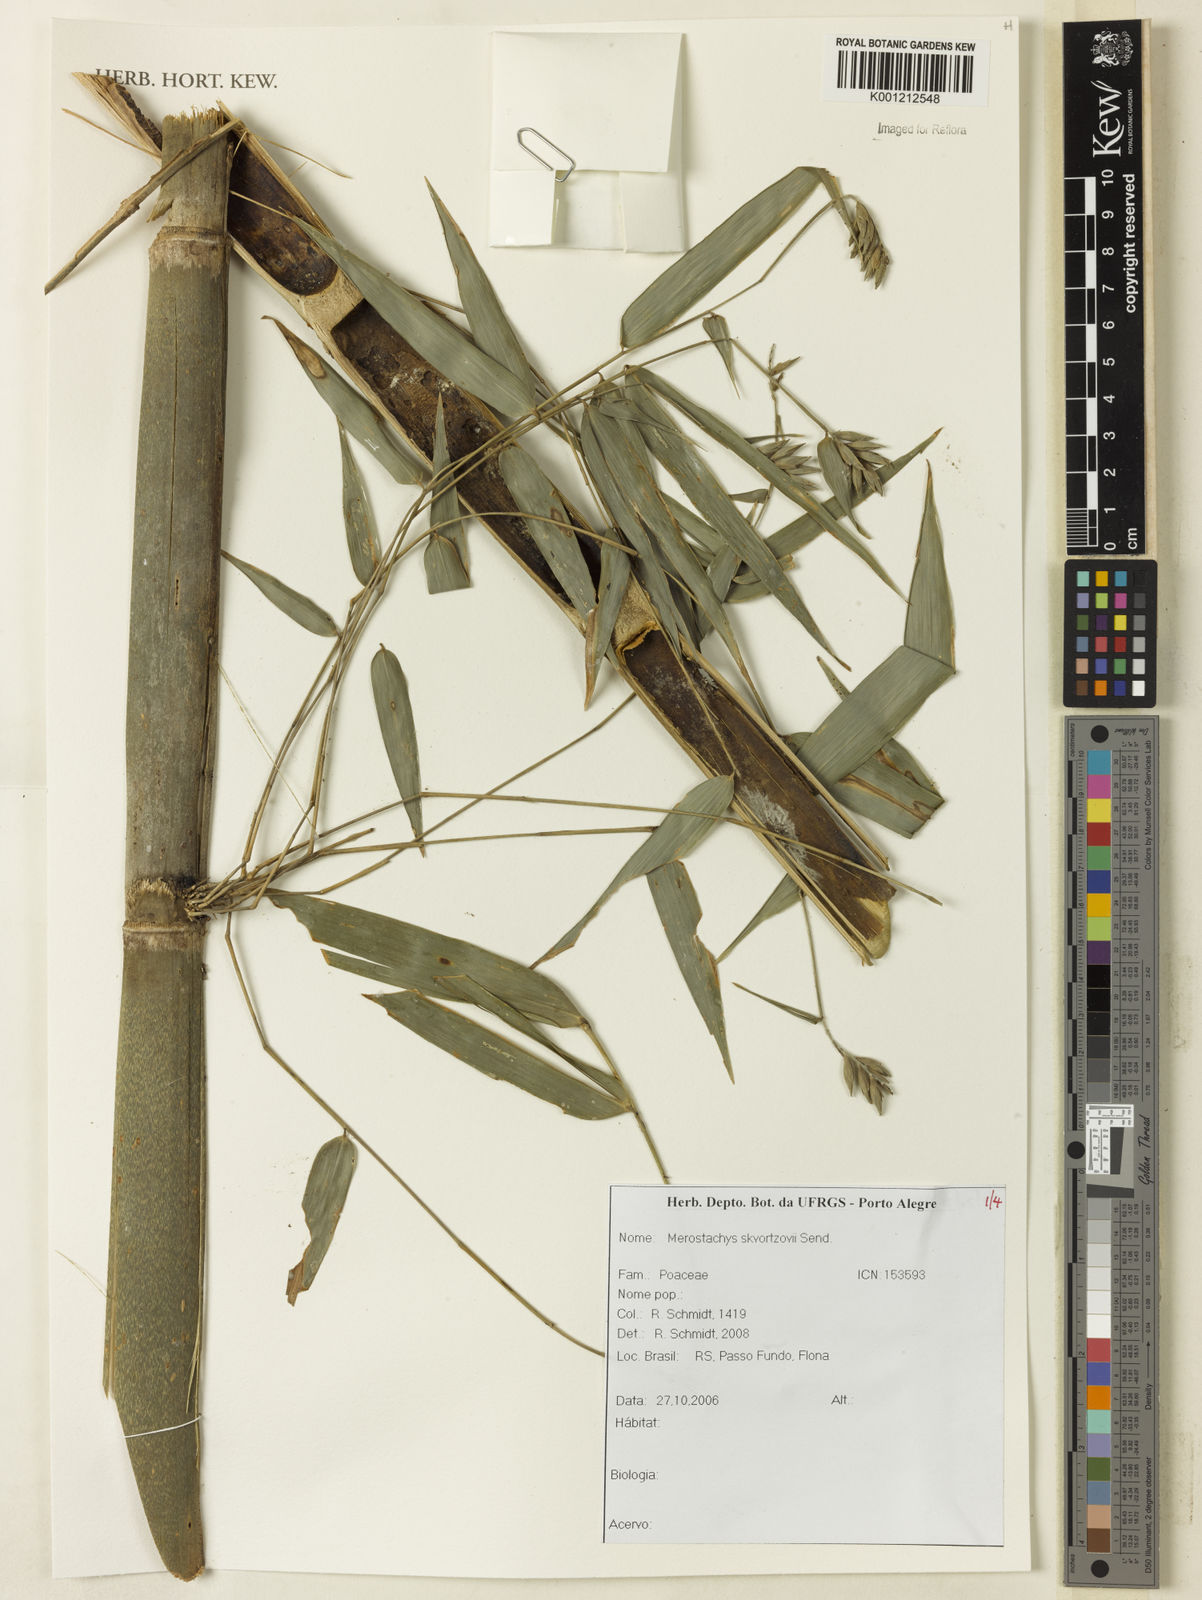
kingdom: Plantae
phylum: Tracheophyta
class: Liliopsida
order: Poales
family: Poaceae
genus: Merostachys
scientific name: Merostachys skvortzovii
